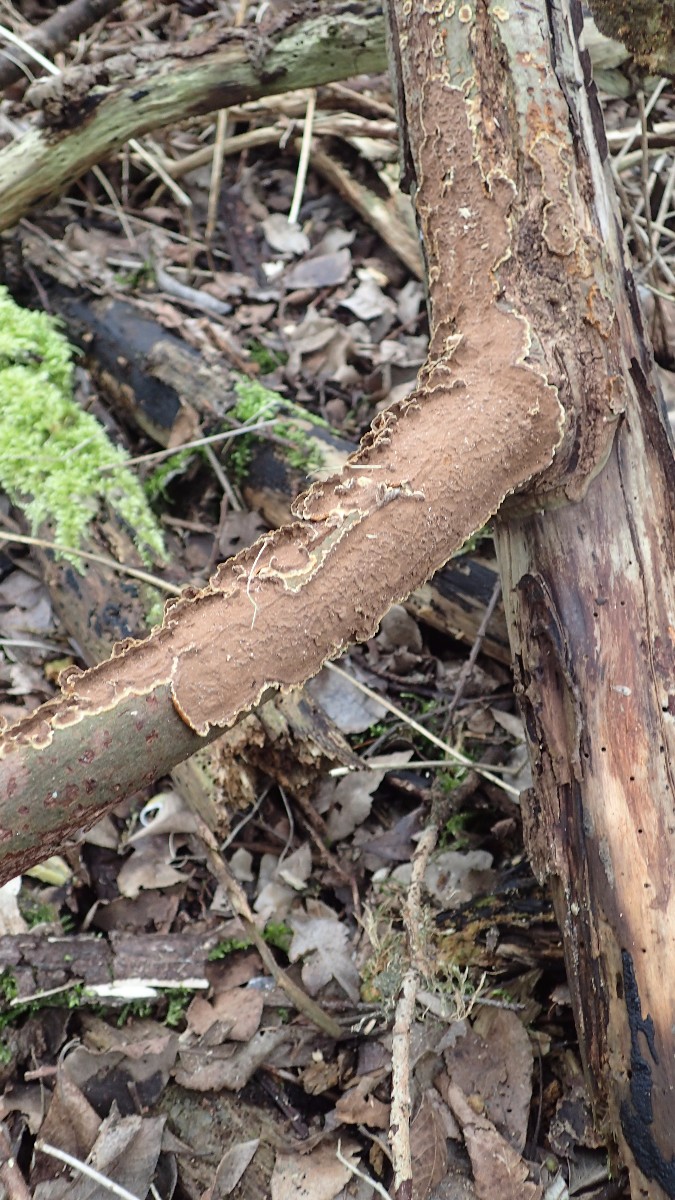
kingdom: Fungi
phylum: Basidiomycota
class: Agaricomycetes
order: Hymenochaetales
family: Hymenochaetaceae
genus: Hydnoporia
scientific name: Hydnoporia tabacina
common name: tobaksbrun ruslædersvamp
